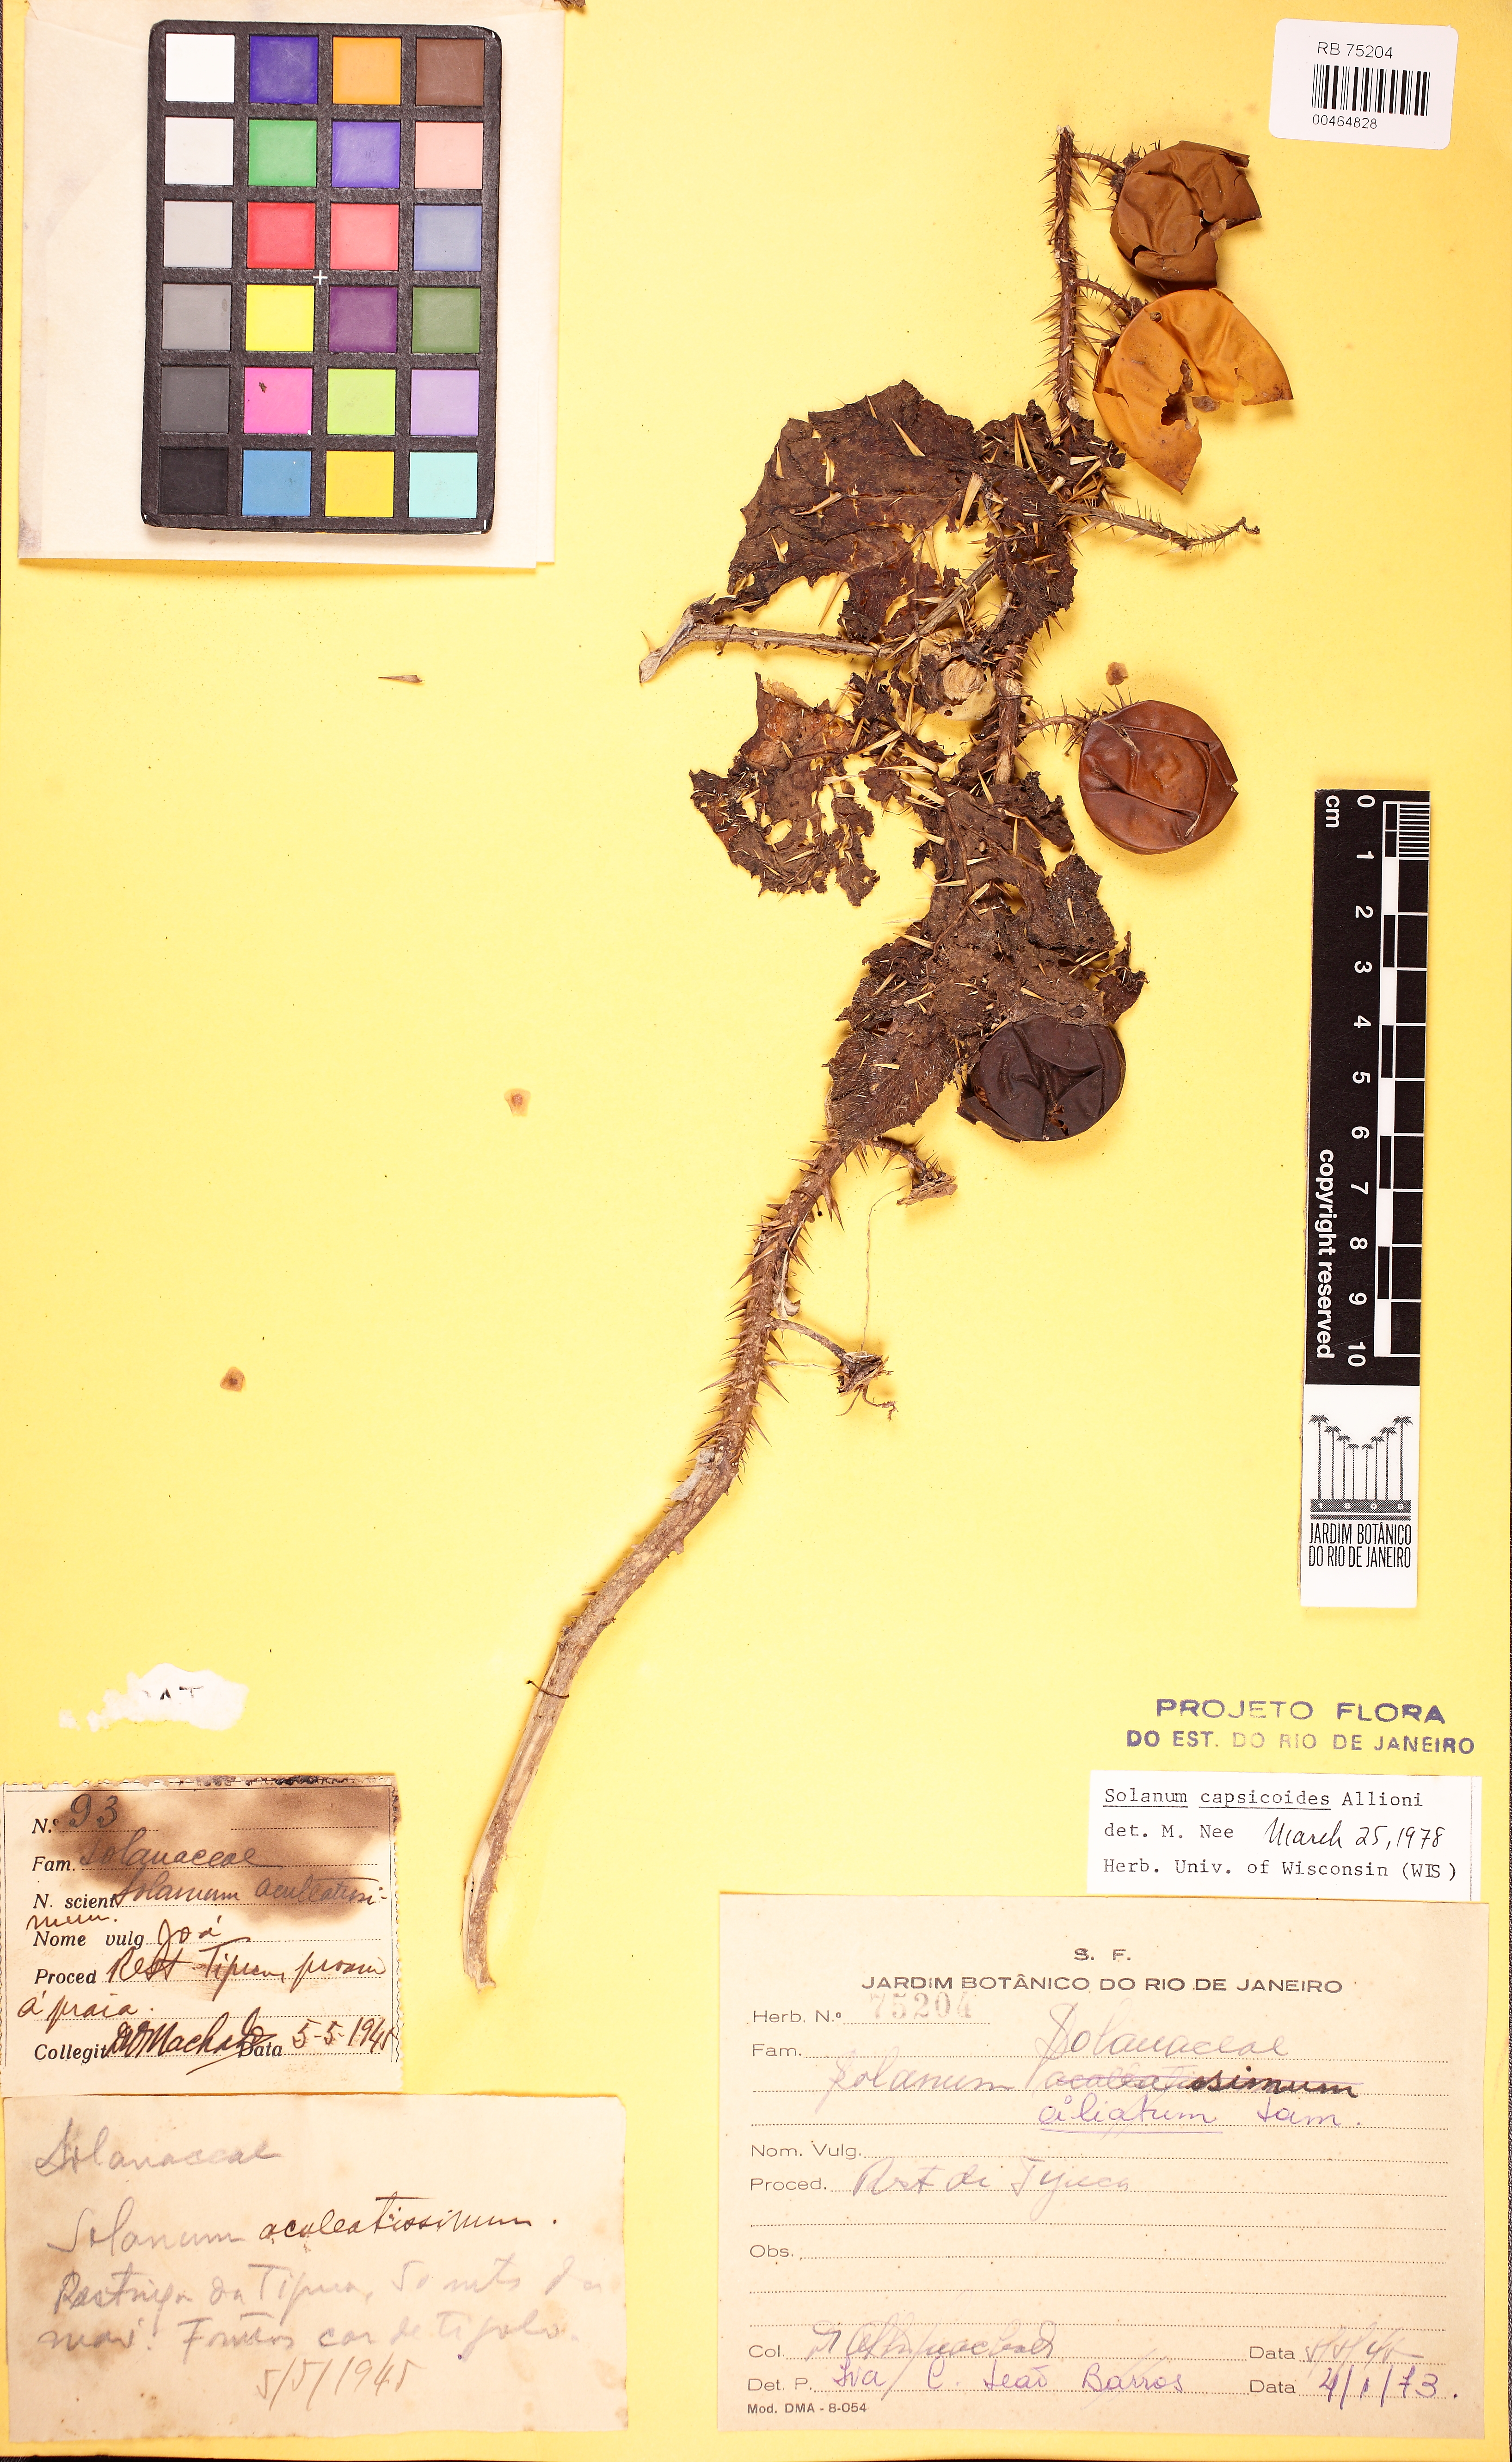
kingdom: Plantae
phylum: Tracheophyta
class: Magnoliopsida
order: Solanales
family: Solanaceae
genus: Solanum
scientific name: Solanum capsicoides
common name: Cockroach berry
